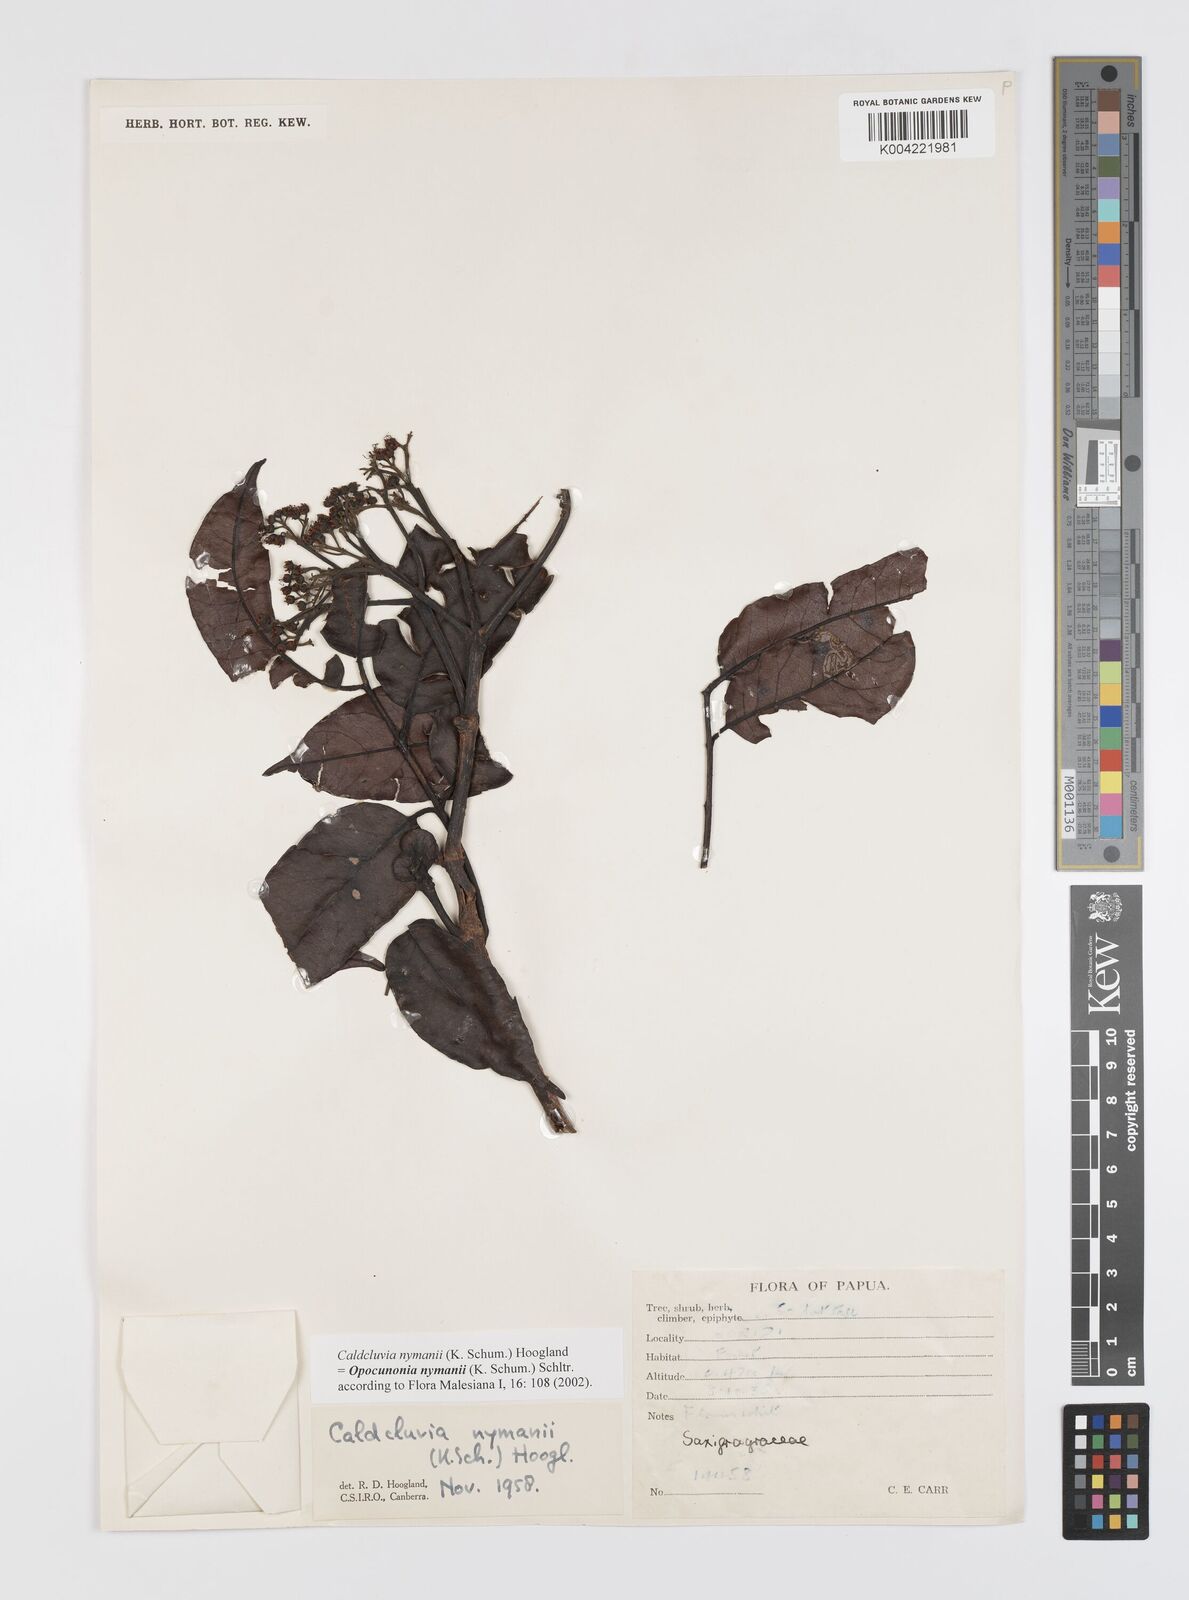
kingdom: Plantae
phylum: Tracheophyta
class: Magnoliopsida
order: Oxalidales
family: Cunoniaceae
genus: Opocunonia
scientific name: Opocunonia nymanii
